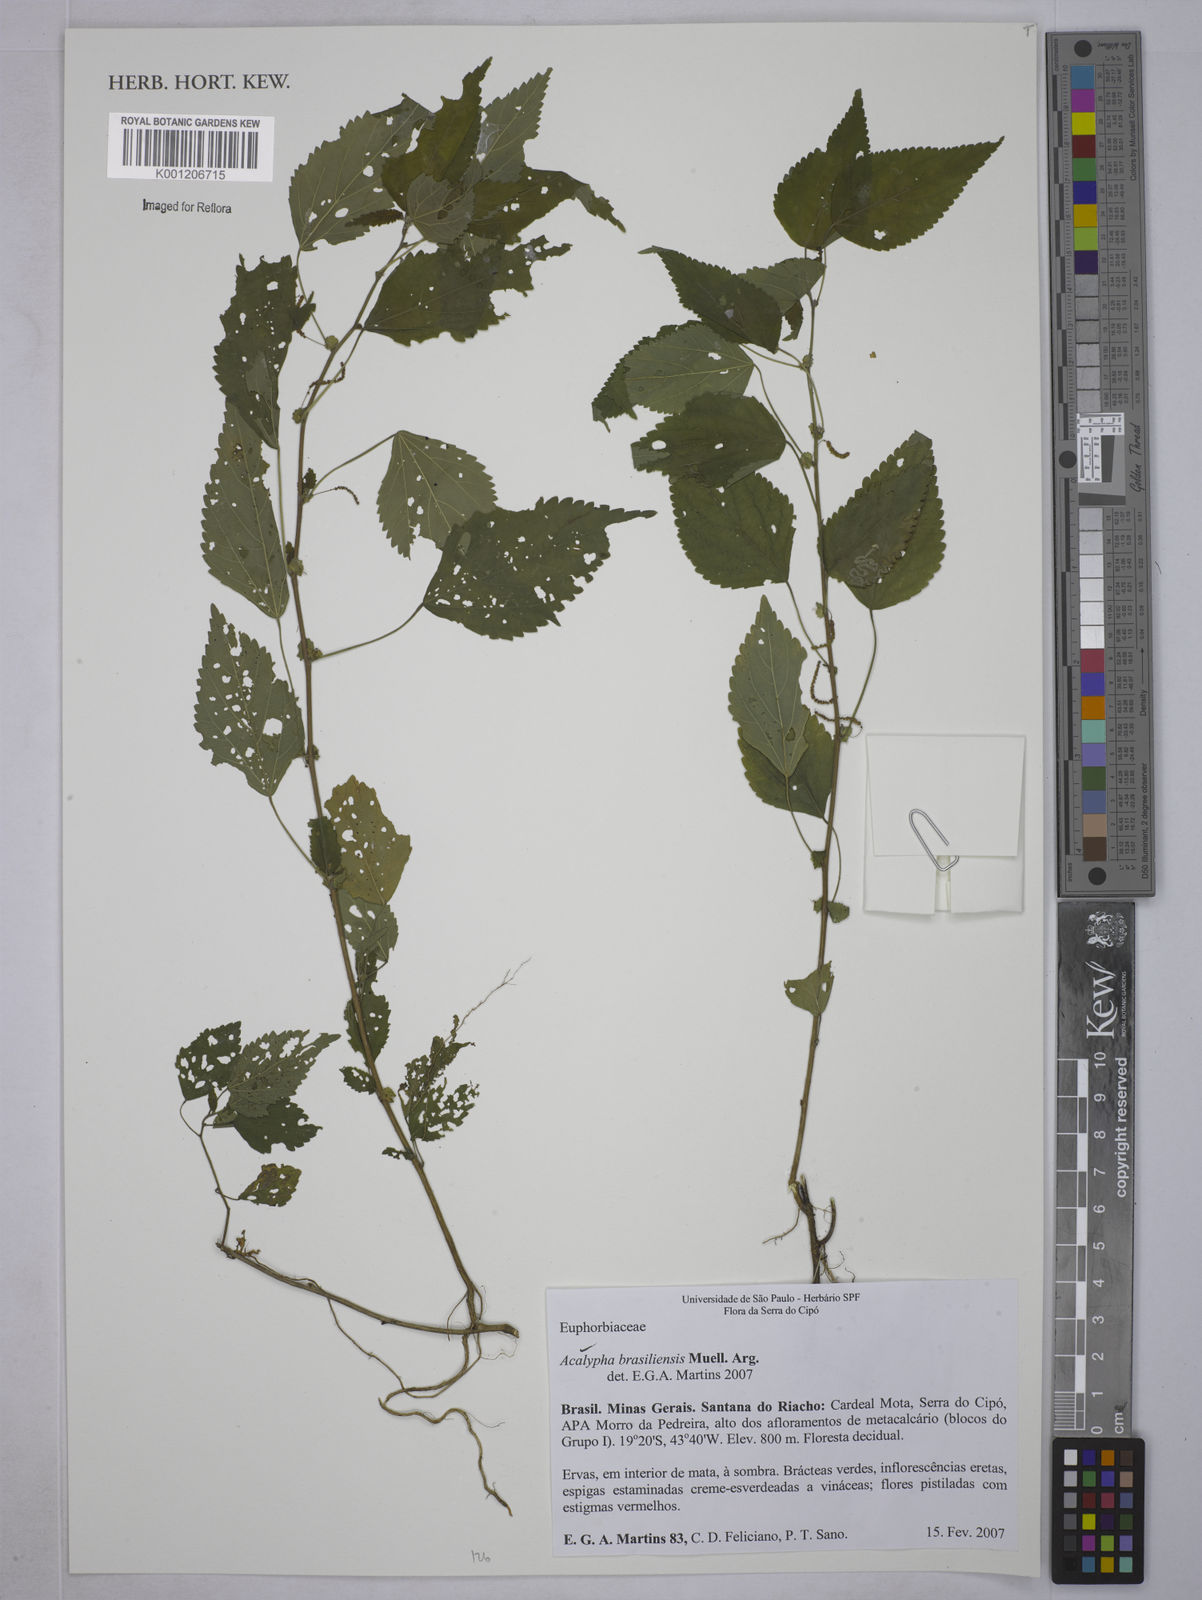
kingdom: Plantae
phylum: Tracheophyta
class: Magnoliopsida
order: Malpighiales
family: Euphorbiaceae
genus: Acalypha
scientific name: Acalypha
